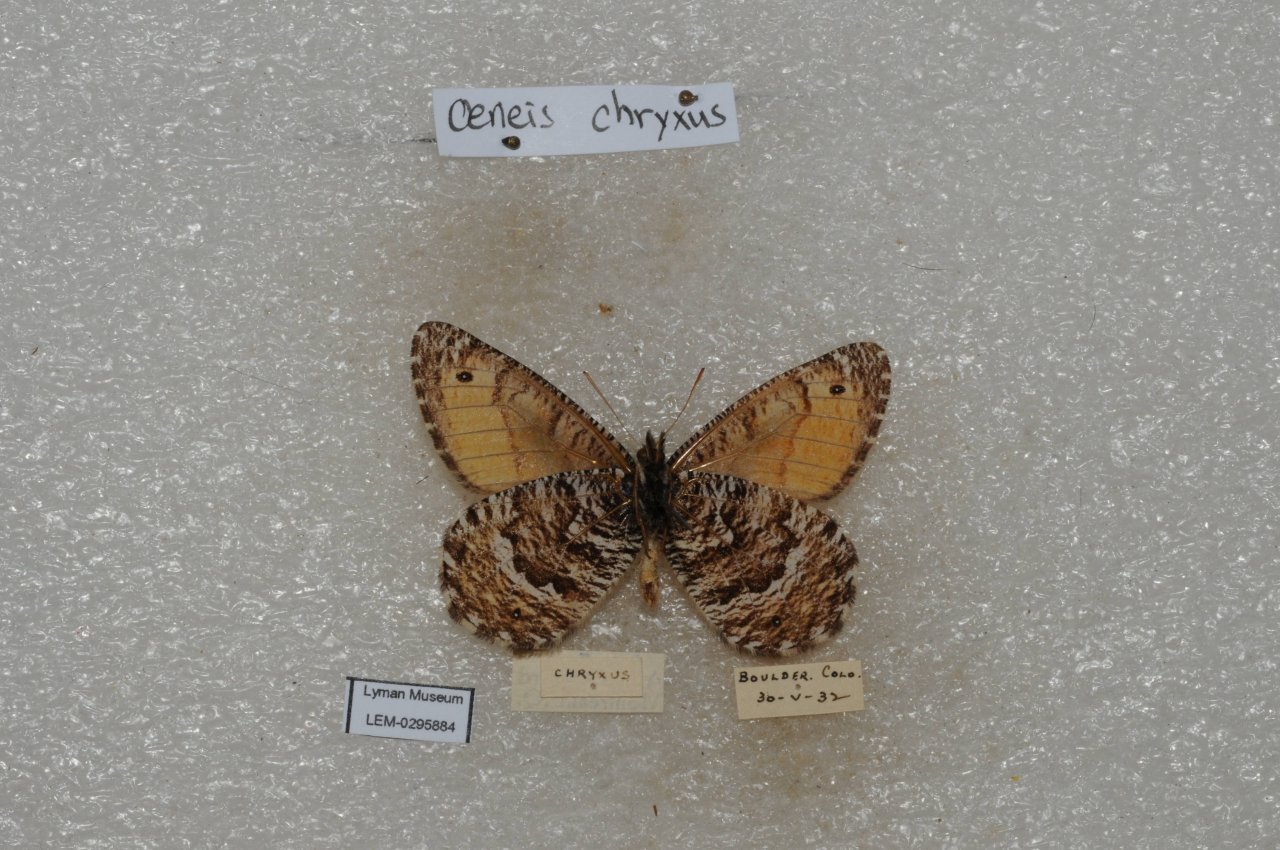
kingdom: Animalia
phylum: Arthropoda
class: Insecta
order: Lepidoptera
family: Nymphalidae
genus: Oeneis
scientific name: Oeneis chryxus
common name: Chryxus Arctic
